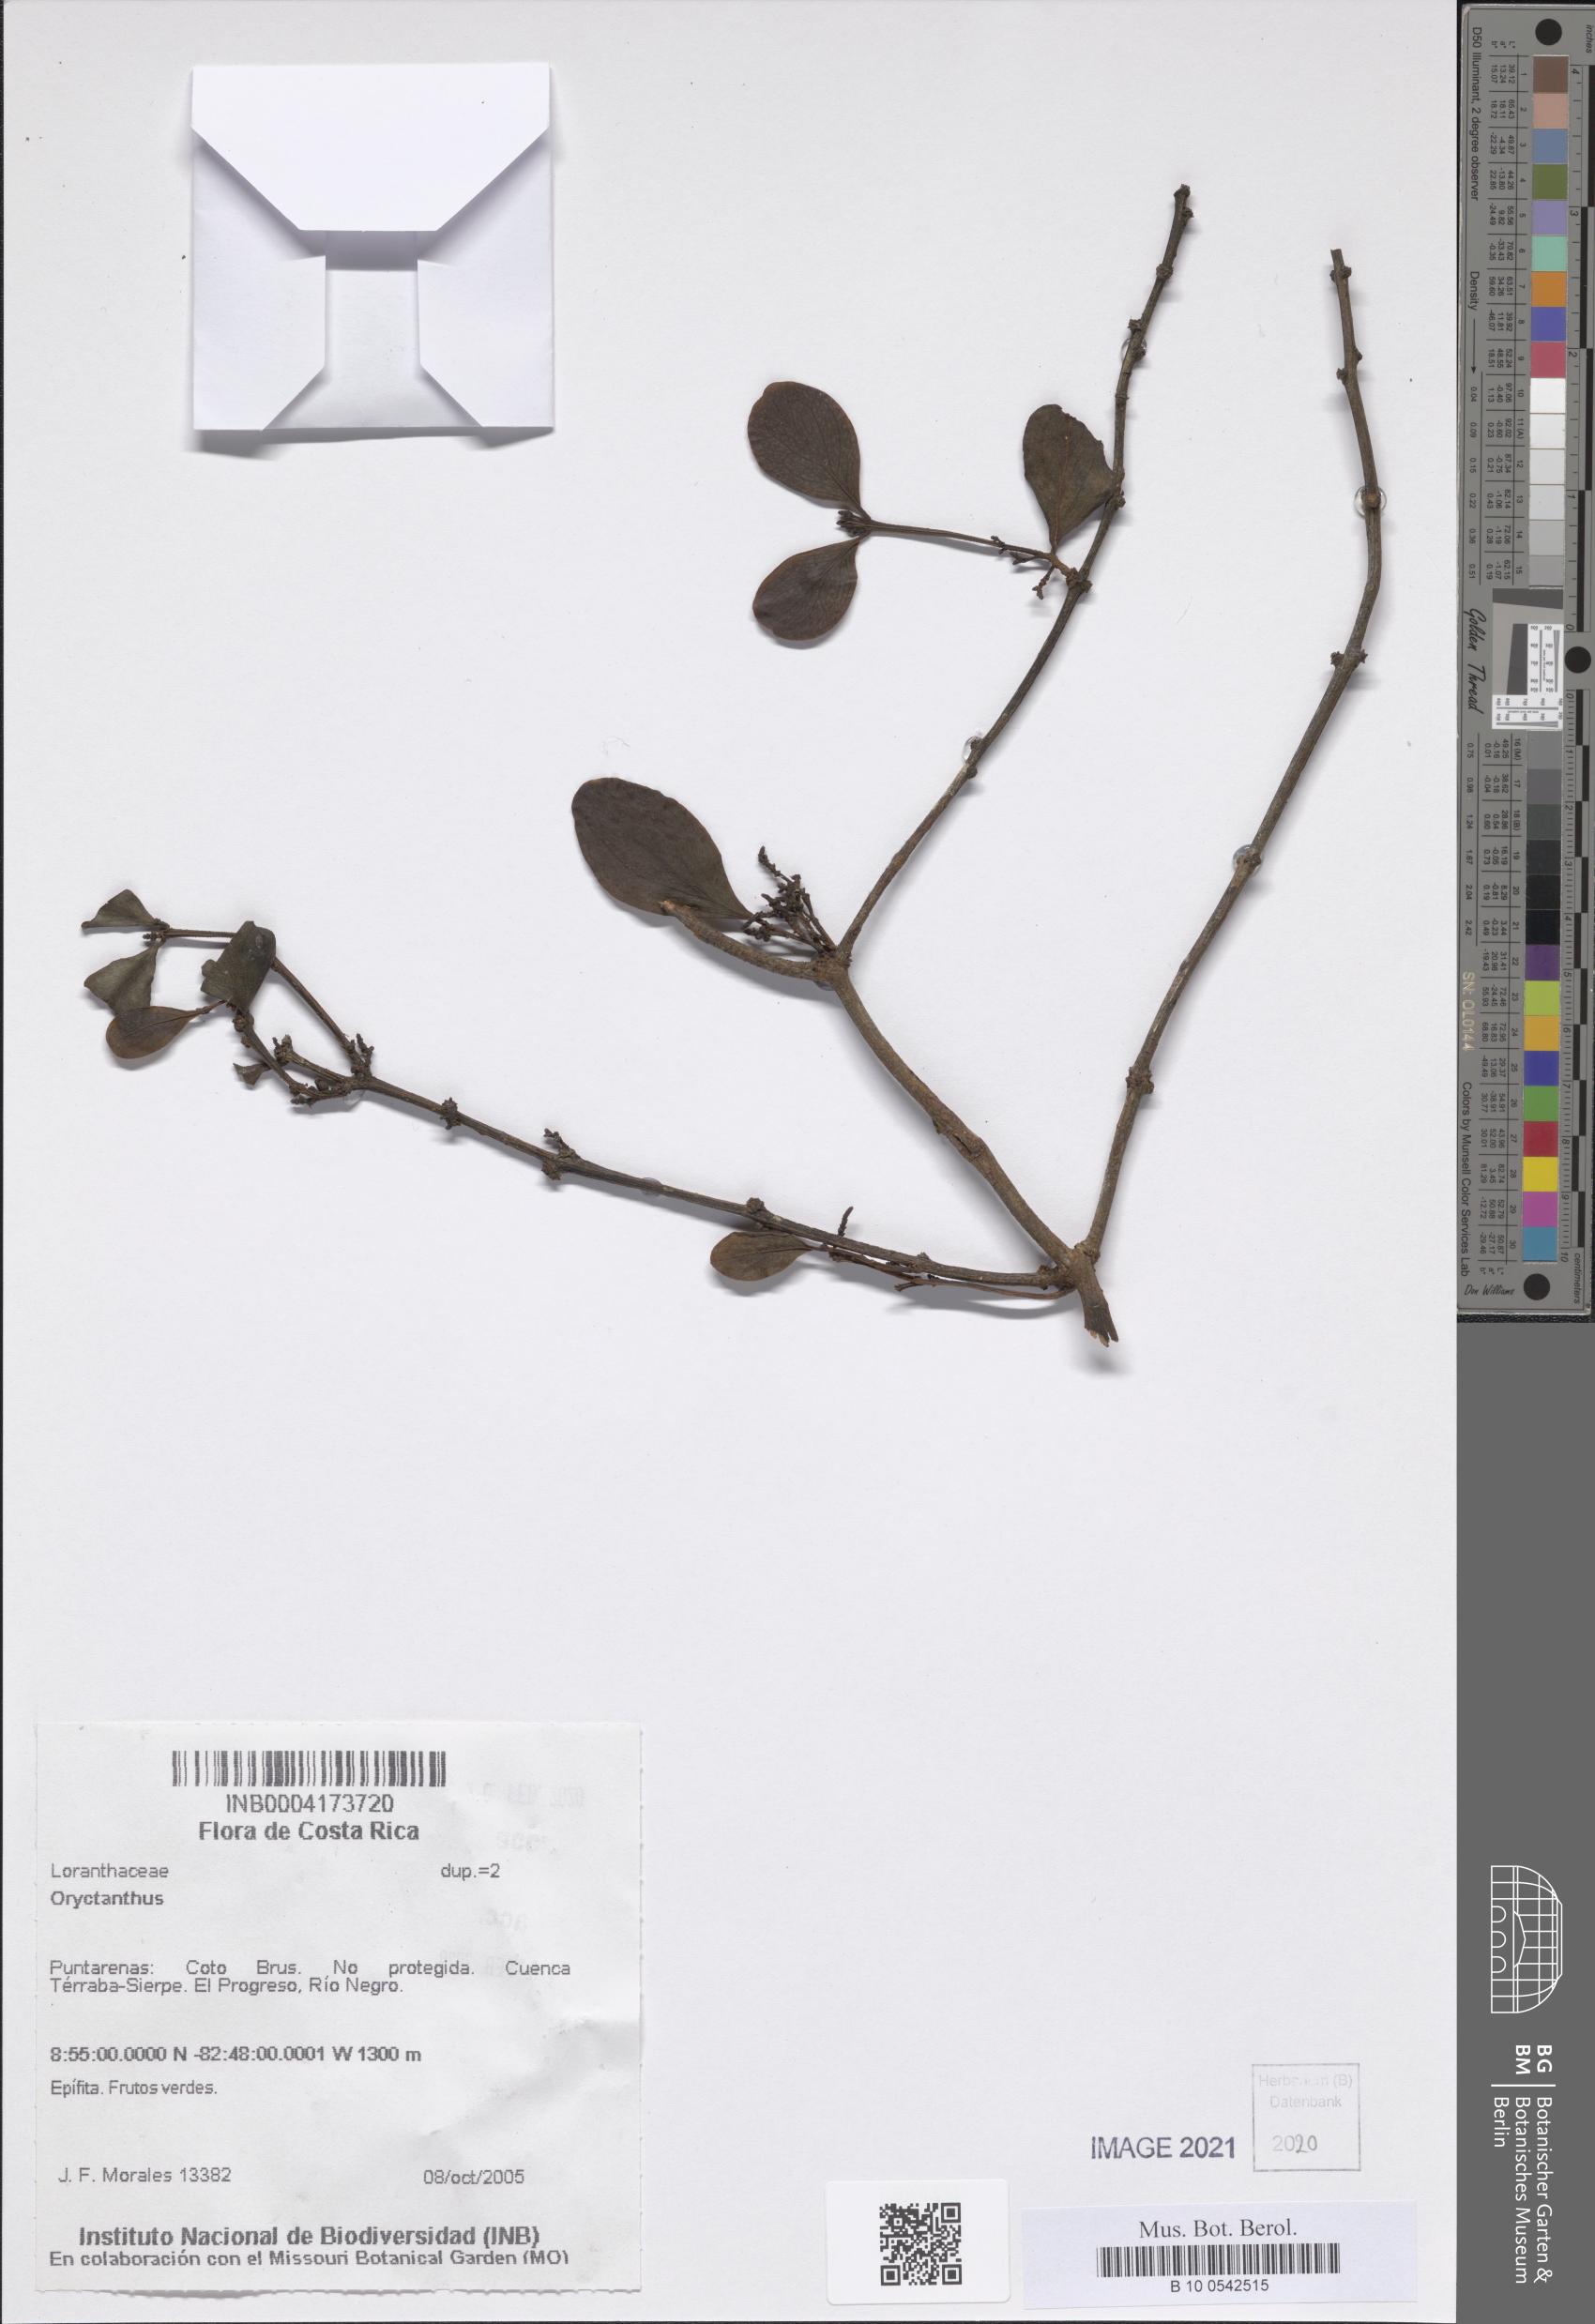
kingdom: Plantae
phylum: Tracheophyta
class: Magnoliopsida
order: Santalales
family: Loranthaceae
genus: Oryctanthus
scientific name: Oryctanthus
